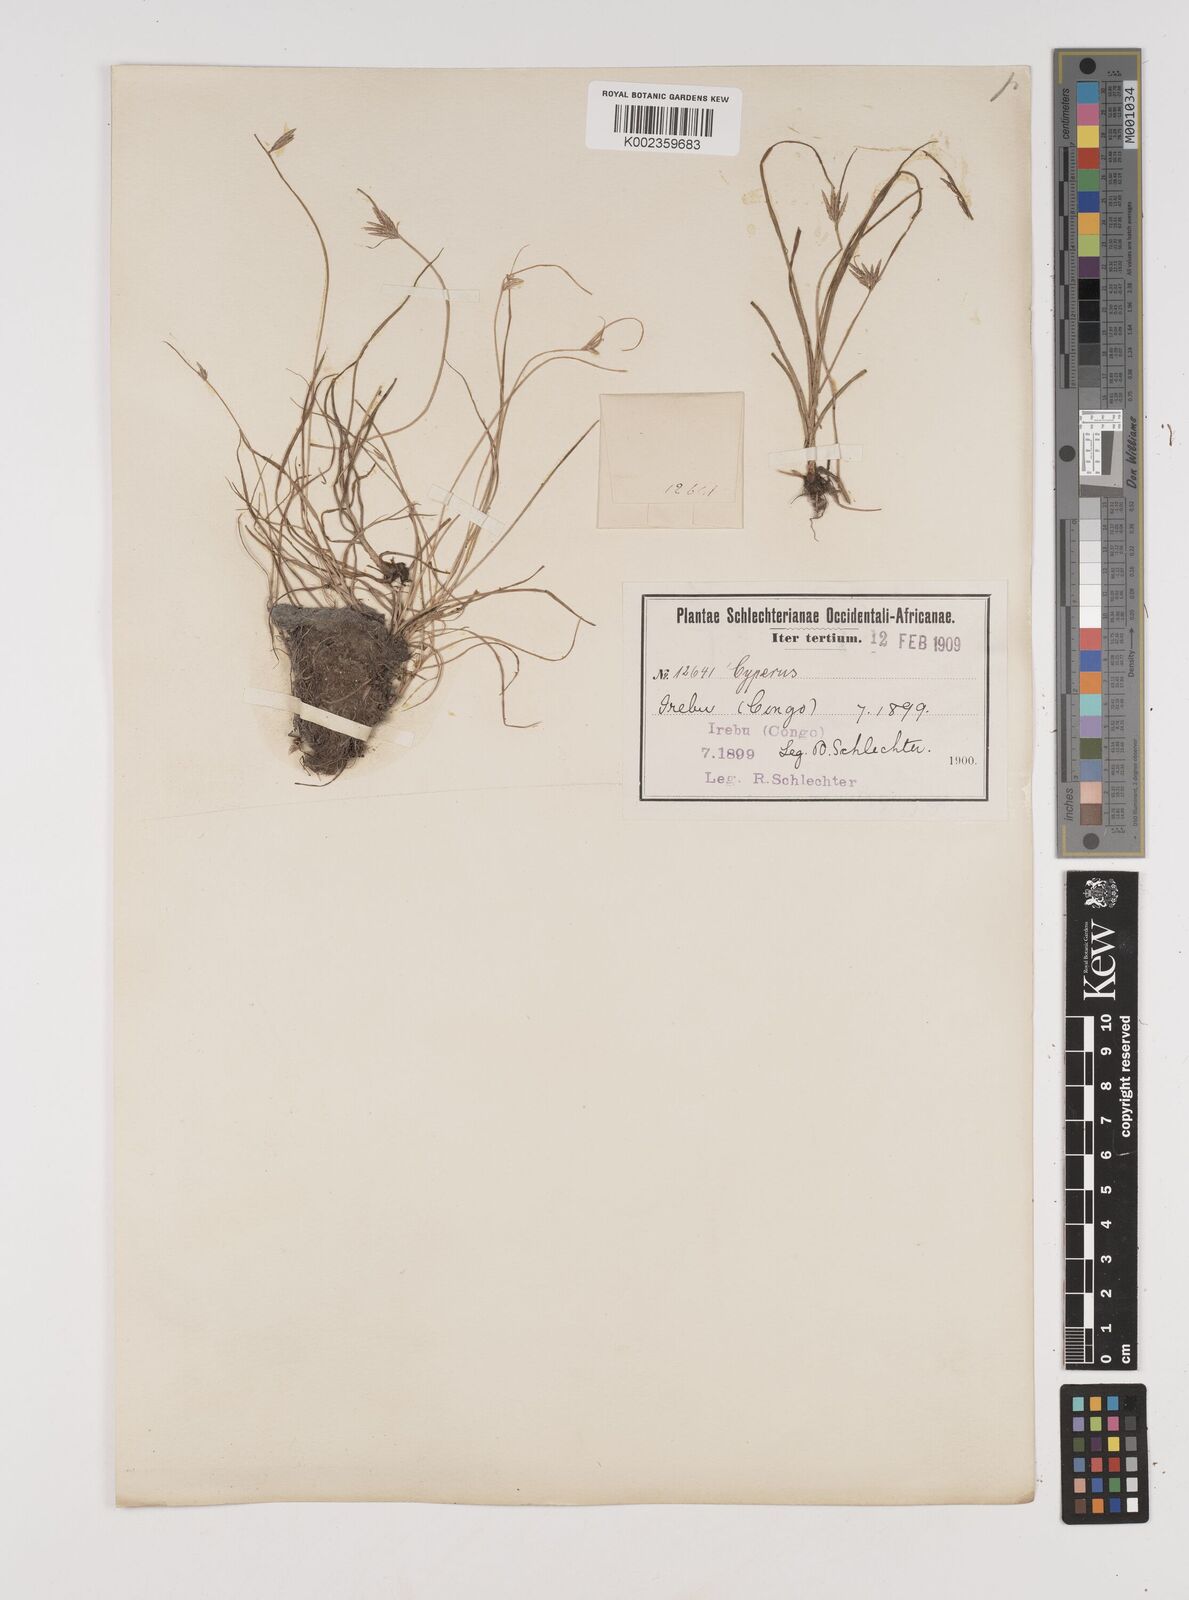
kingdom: Plantae
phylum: Tracheophyta
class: Liliopsida
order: Poales
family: Cyperaceae
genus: Cyperus
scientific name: Cyperus
